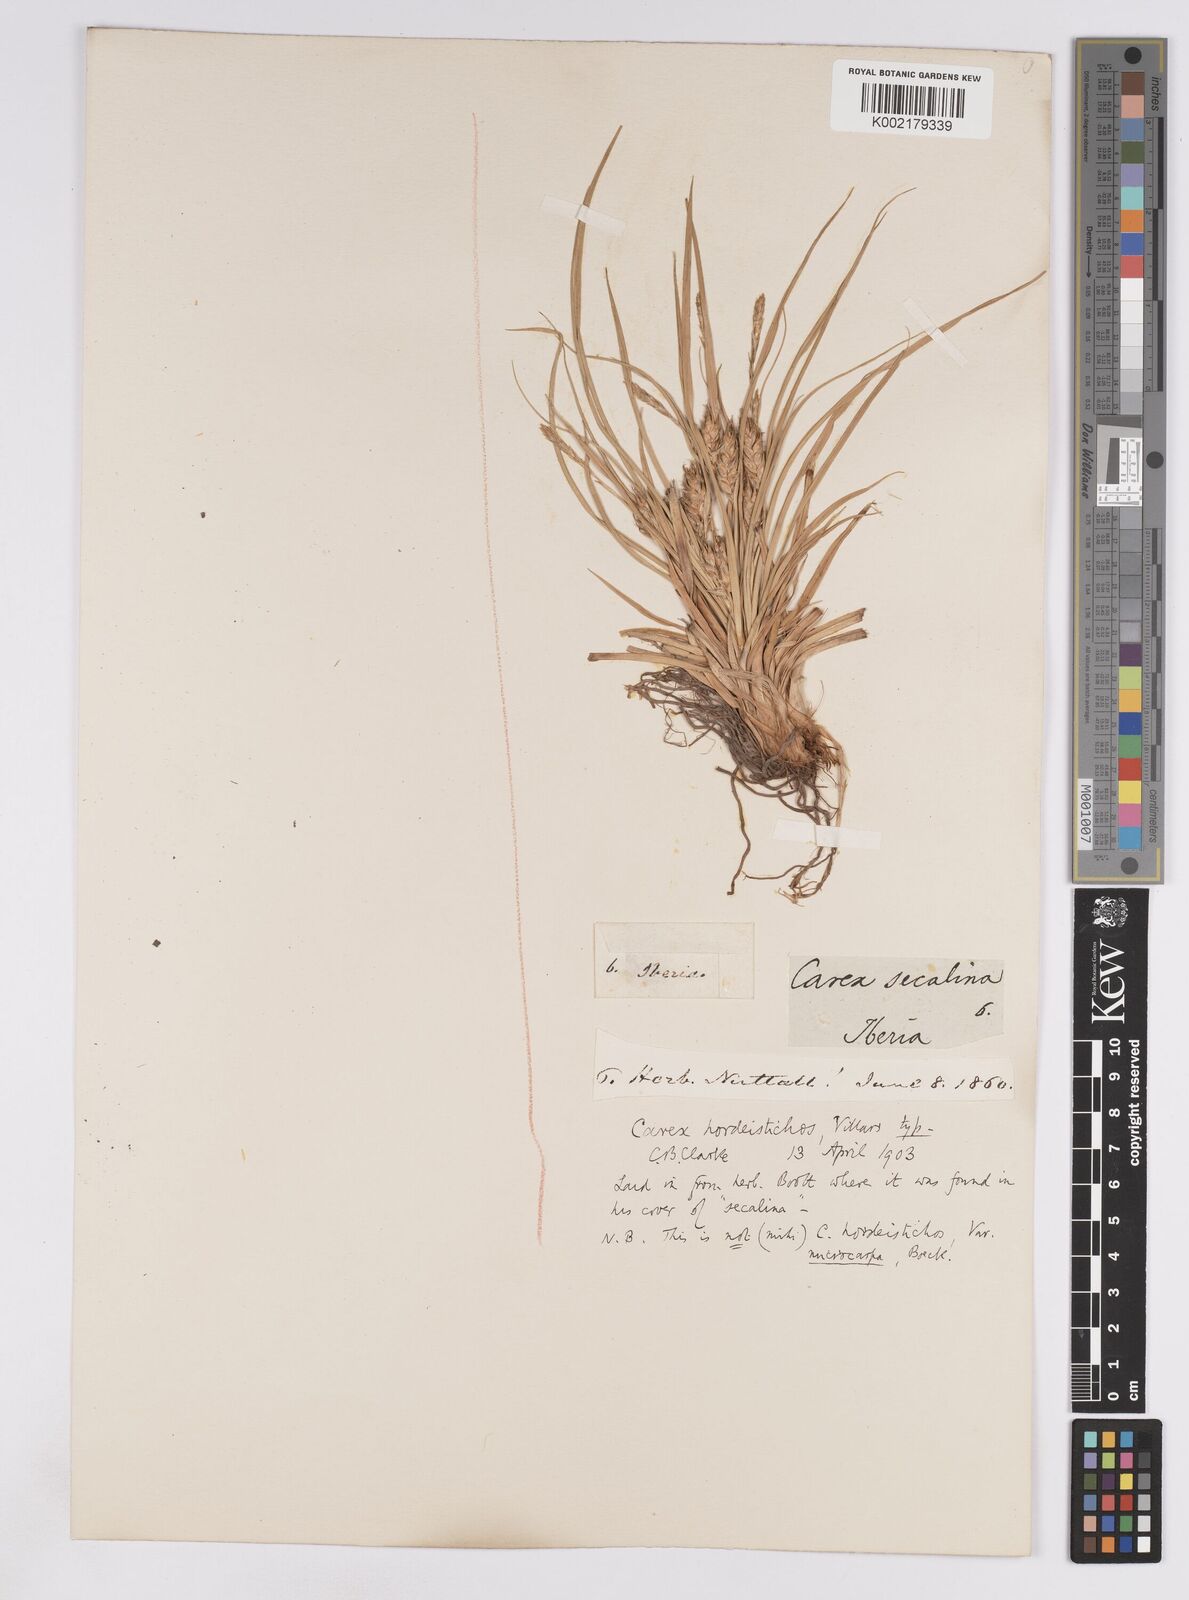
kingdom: Plantae
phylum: Tracheophyta
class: Liliopsida
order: Poales
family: Cyperaceae
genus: Carex
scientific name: Carex hordeistichos
